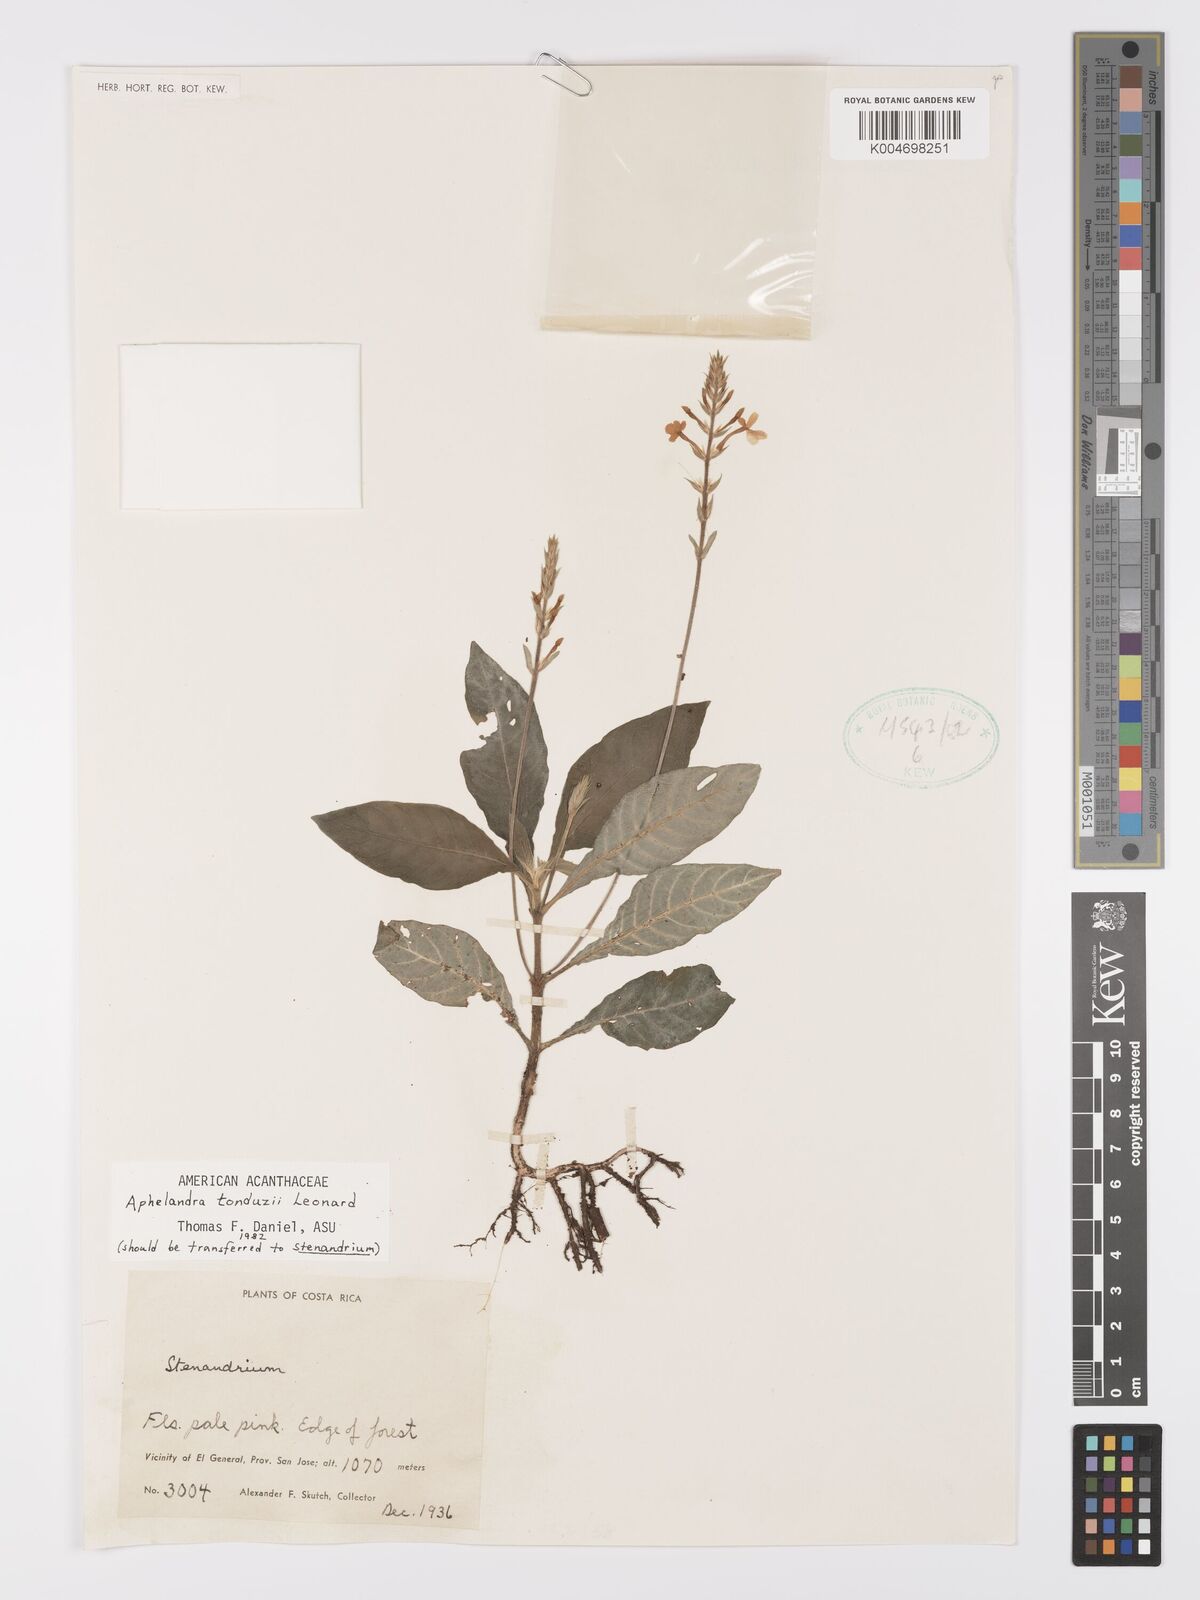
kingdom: Plantae
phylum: Tracheophyta
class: Magnoliopsida
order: Lamiales
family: Acanthaceae
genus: Aphelandra
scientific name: Aphelandra tonduzii
